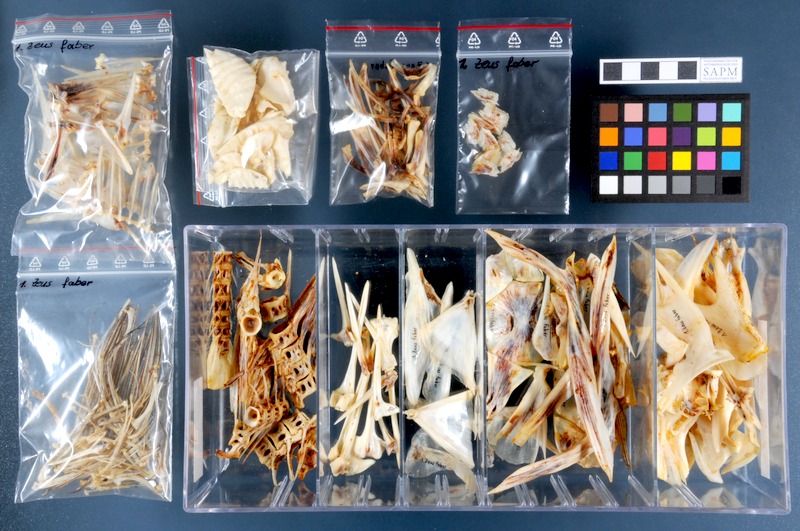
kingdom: Animalia
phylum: Chordata
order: Zeiformes
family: Zeidae
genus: Zeus
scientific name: Zeus faber
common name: John dory
